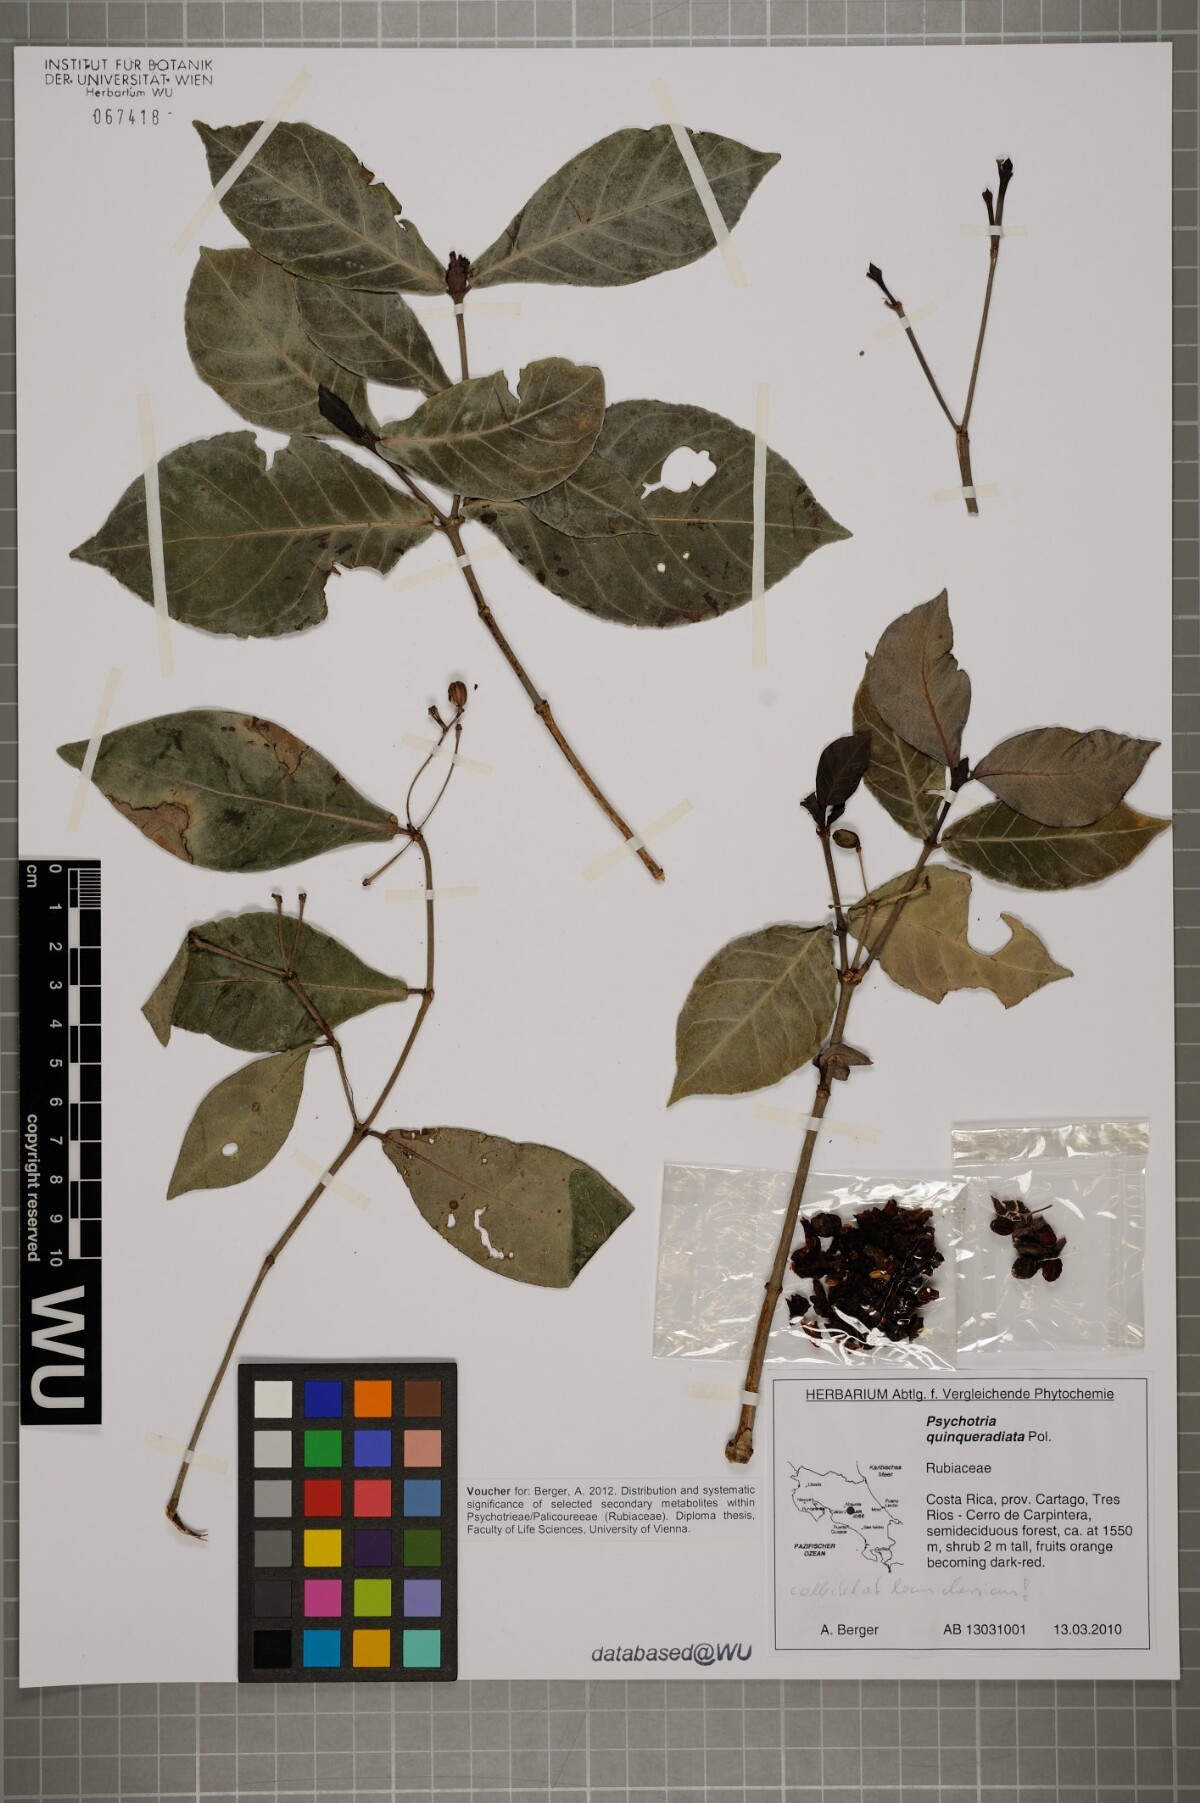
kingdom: Plantae
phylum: Tracheophyta
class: Magnoliopsida
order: Gentianales
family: Rubiaceae
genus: Psychotria
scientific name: Psychotria subsessilis
